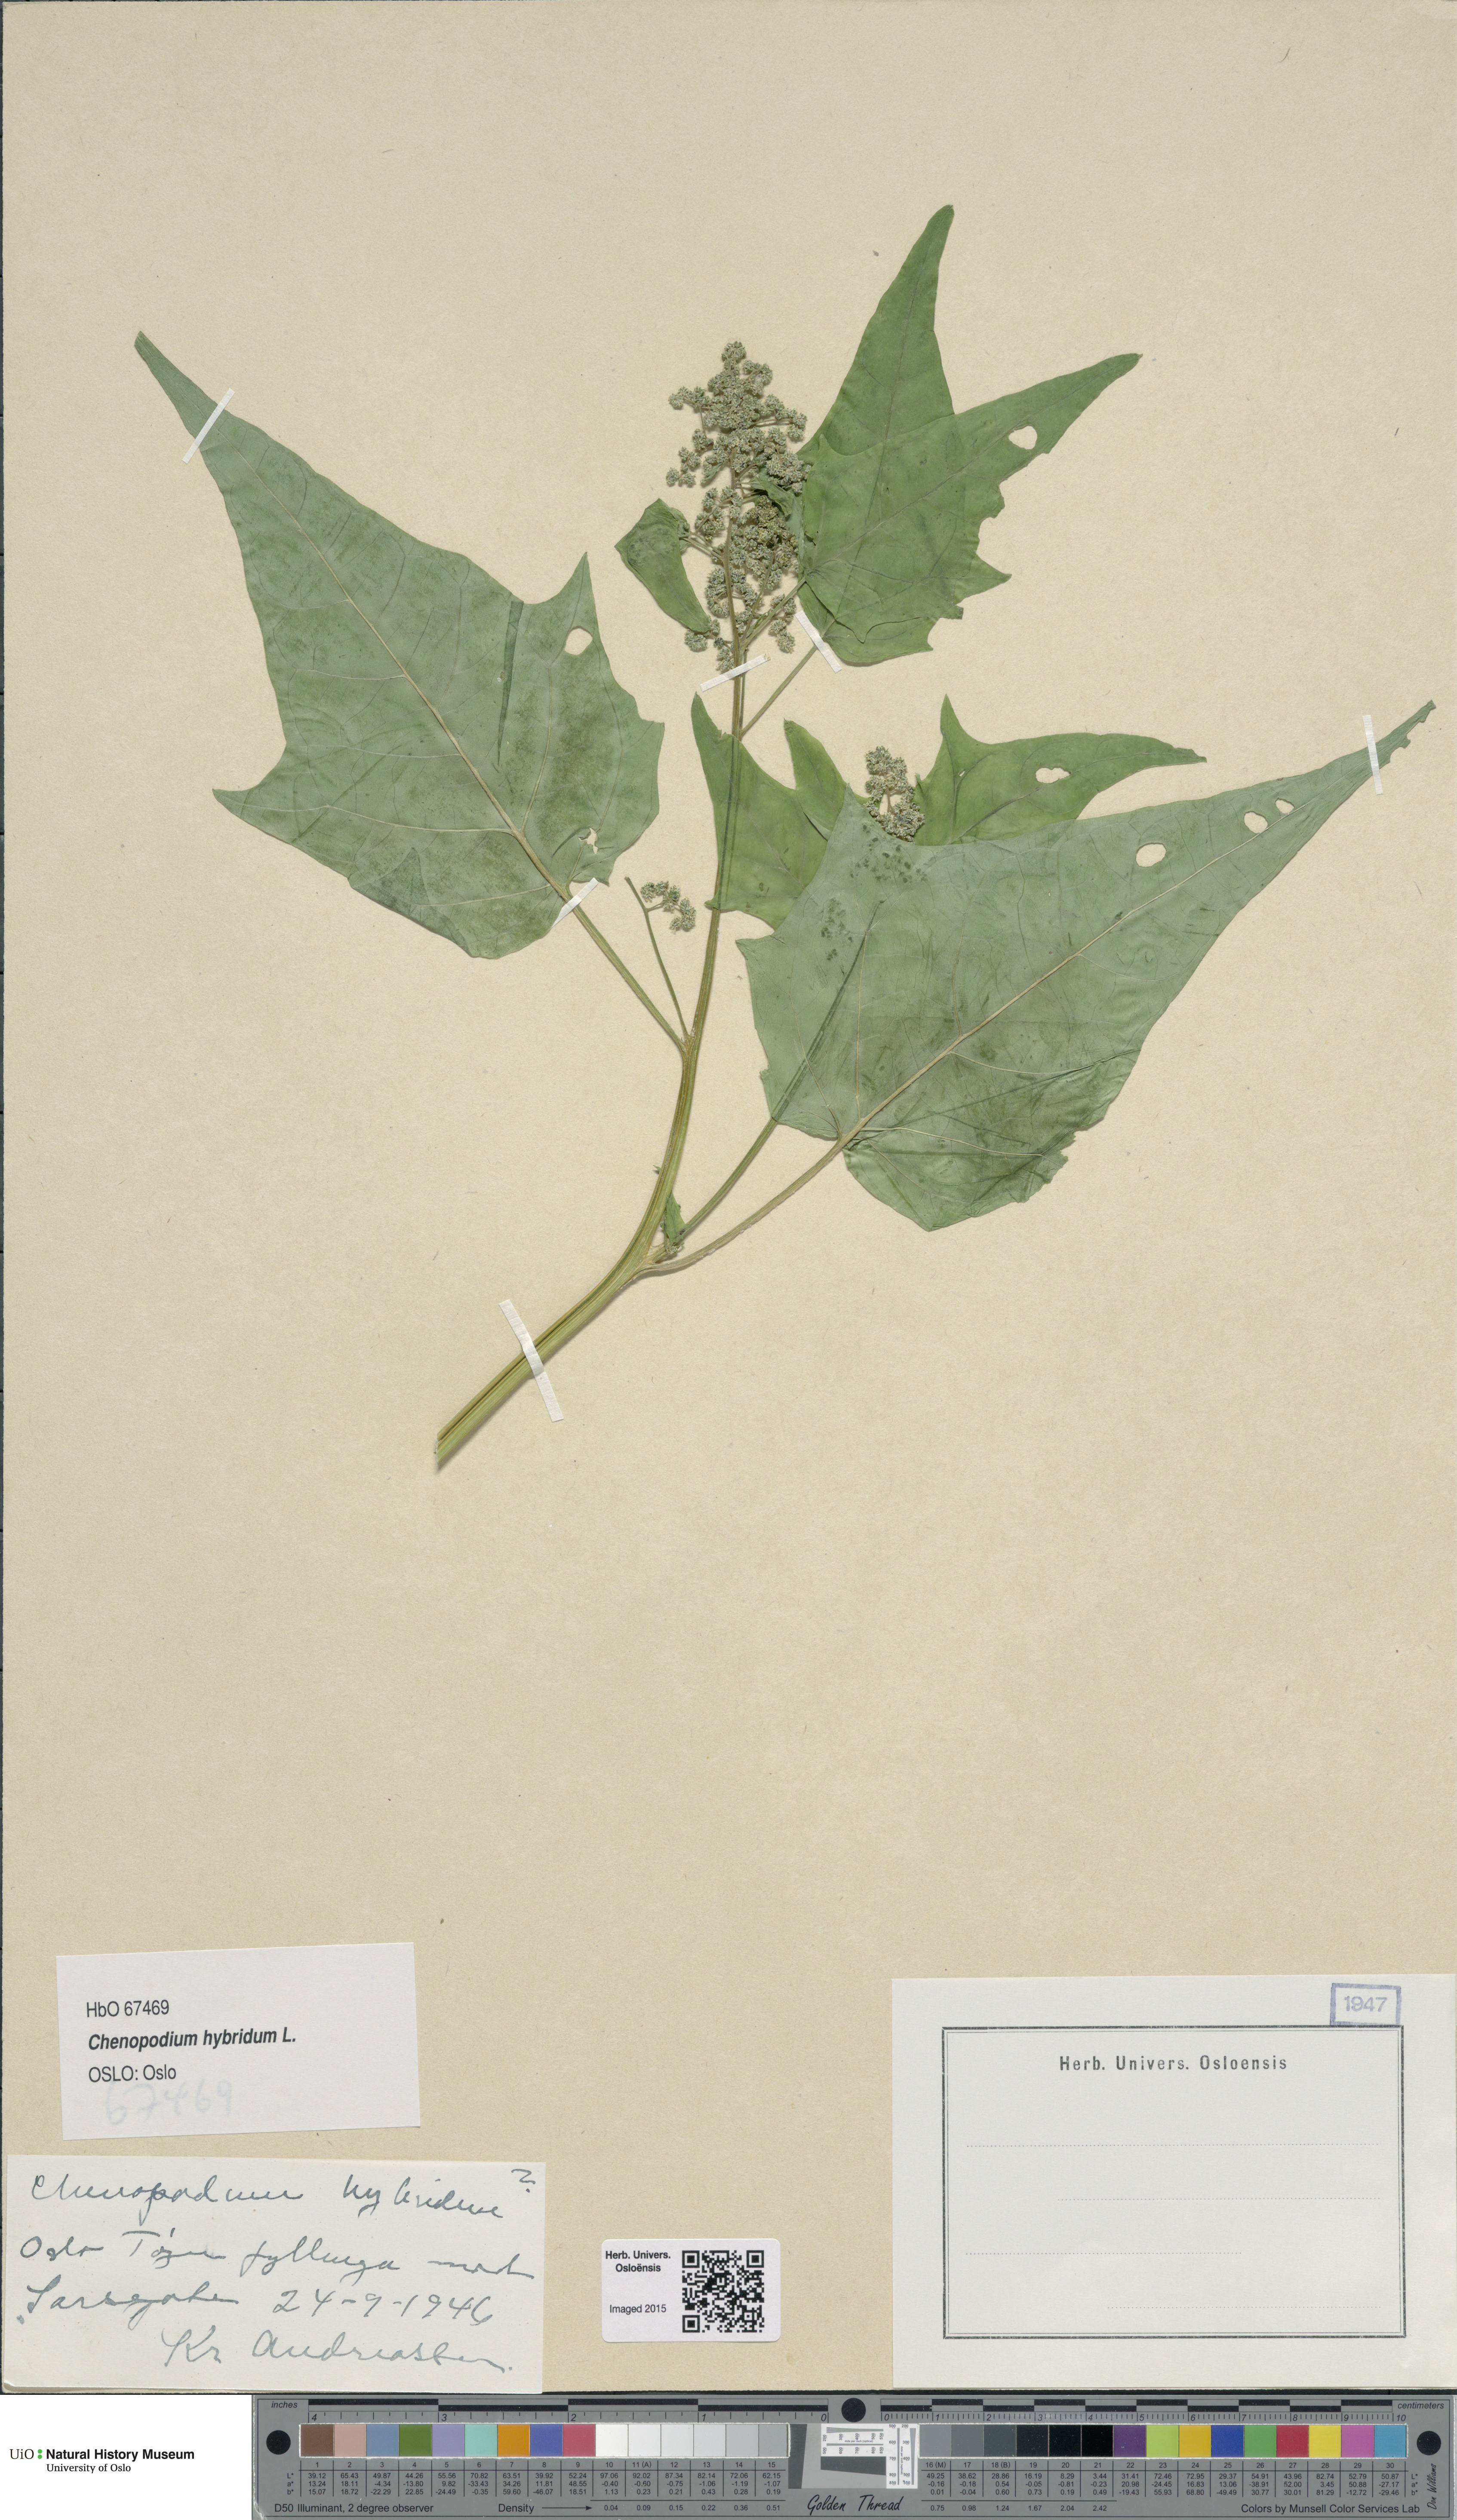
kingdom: Plantae
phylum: Tracheophyta
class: Magnoliopsida
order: Caryophyllales
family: Amaranthaceae
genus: Chenopodiastrum
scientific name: Chenopodiastrum hybridum
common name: Mapleleaf goosefoot
